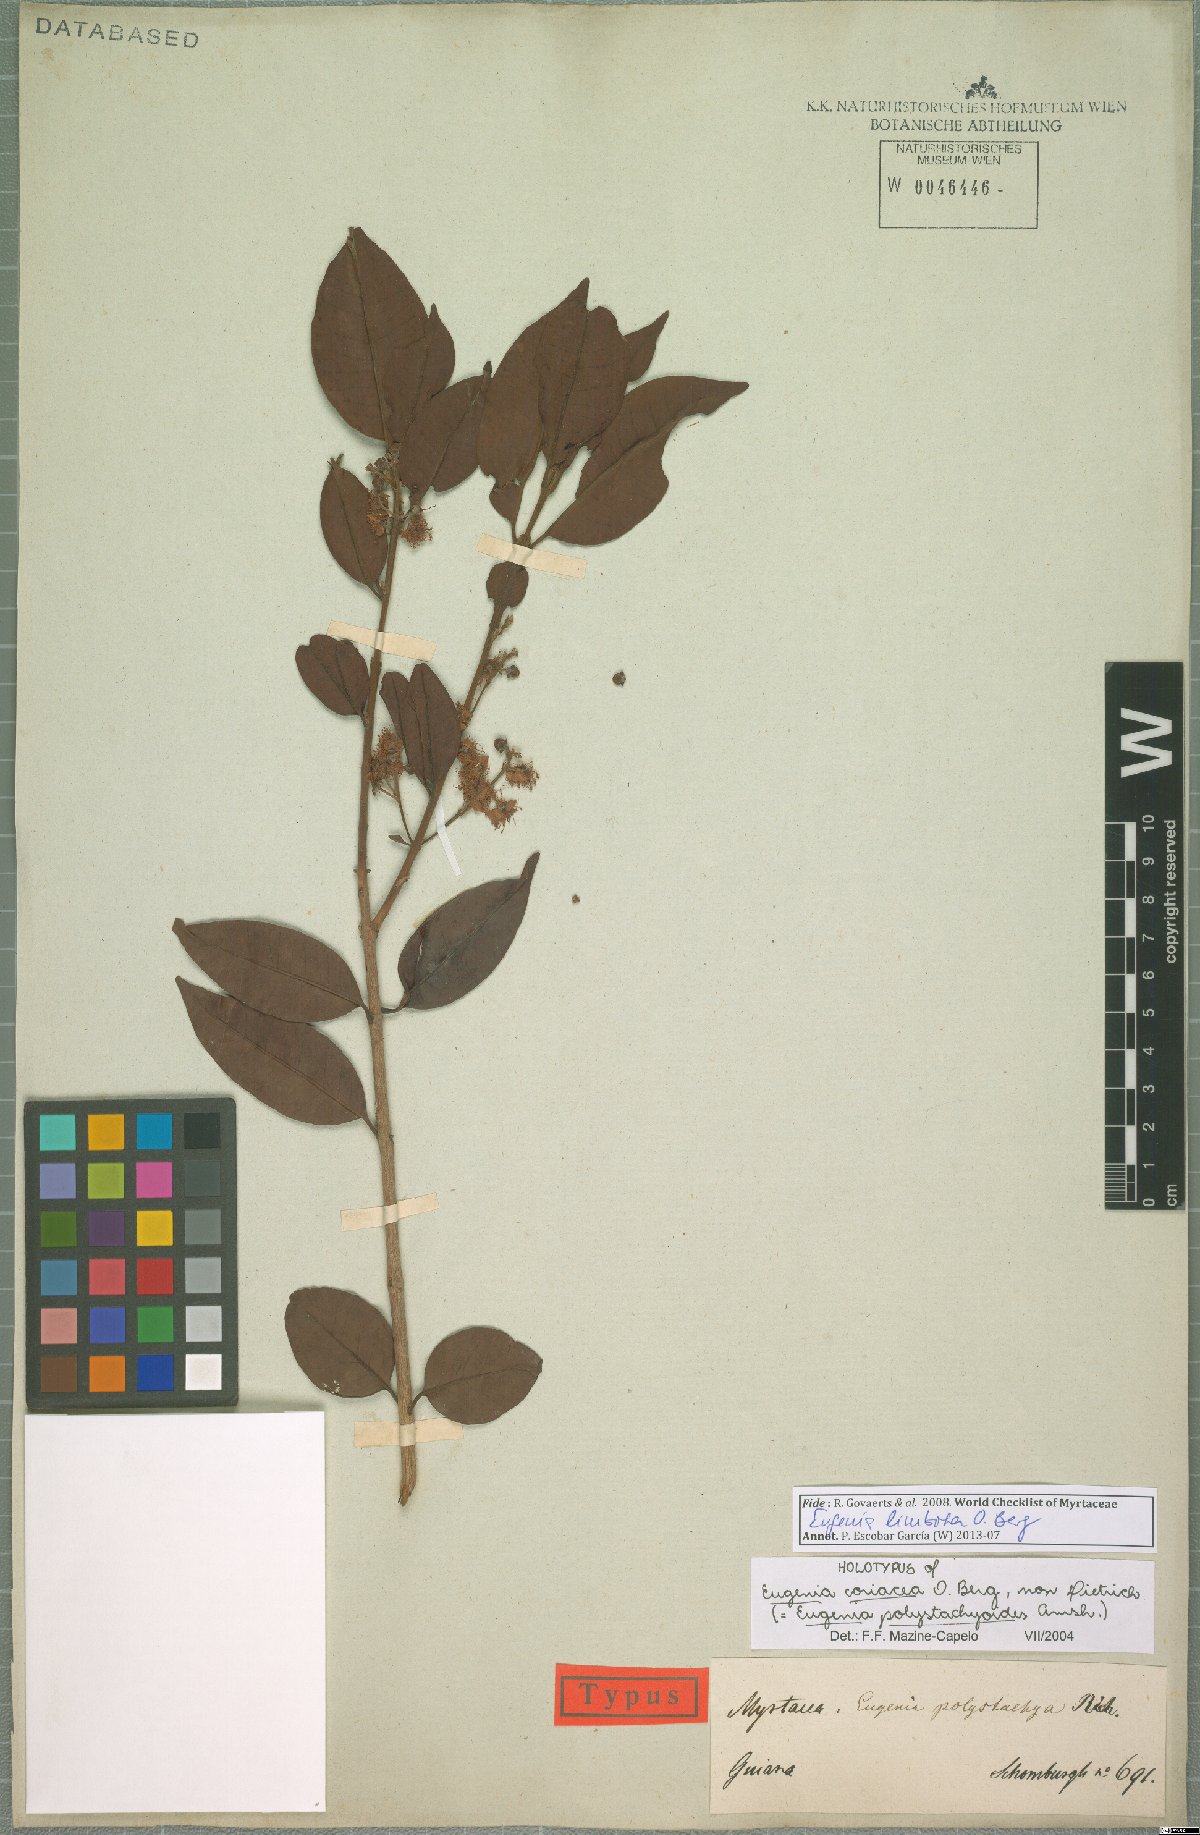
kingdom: Plantae
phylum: Tracheophyta
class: Magnoliopsida
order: Myrtales
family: Myrtaceae
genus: Eugenia
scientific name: Eugenia limbosa
